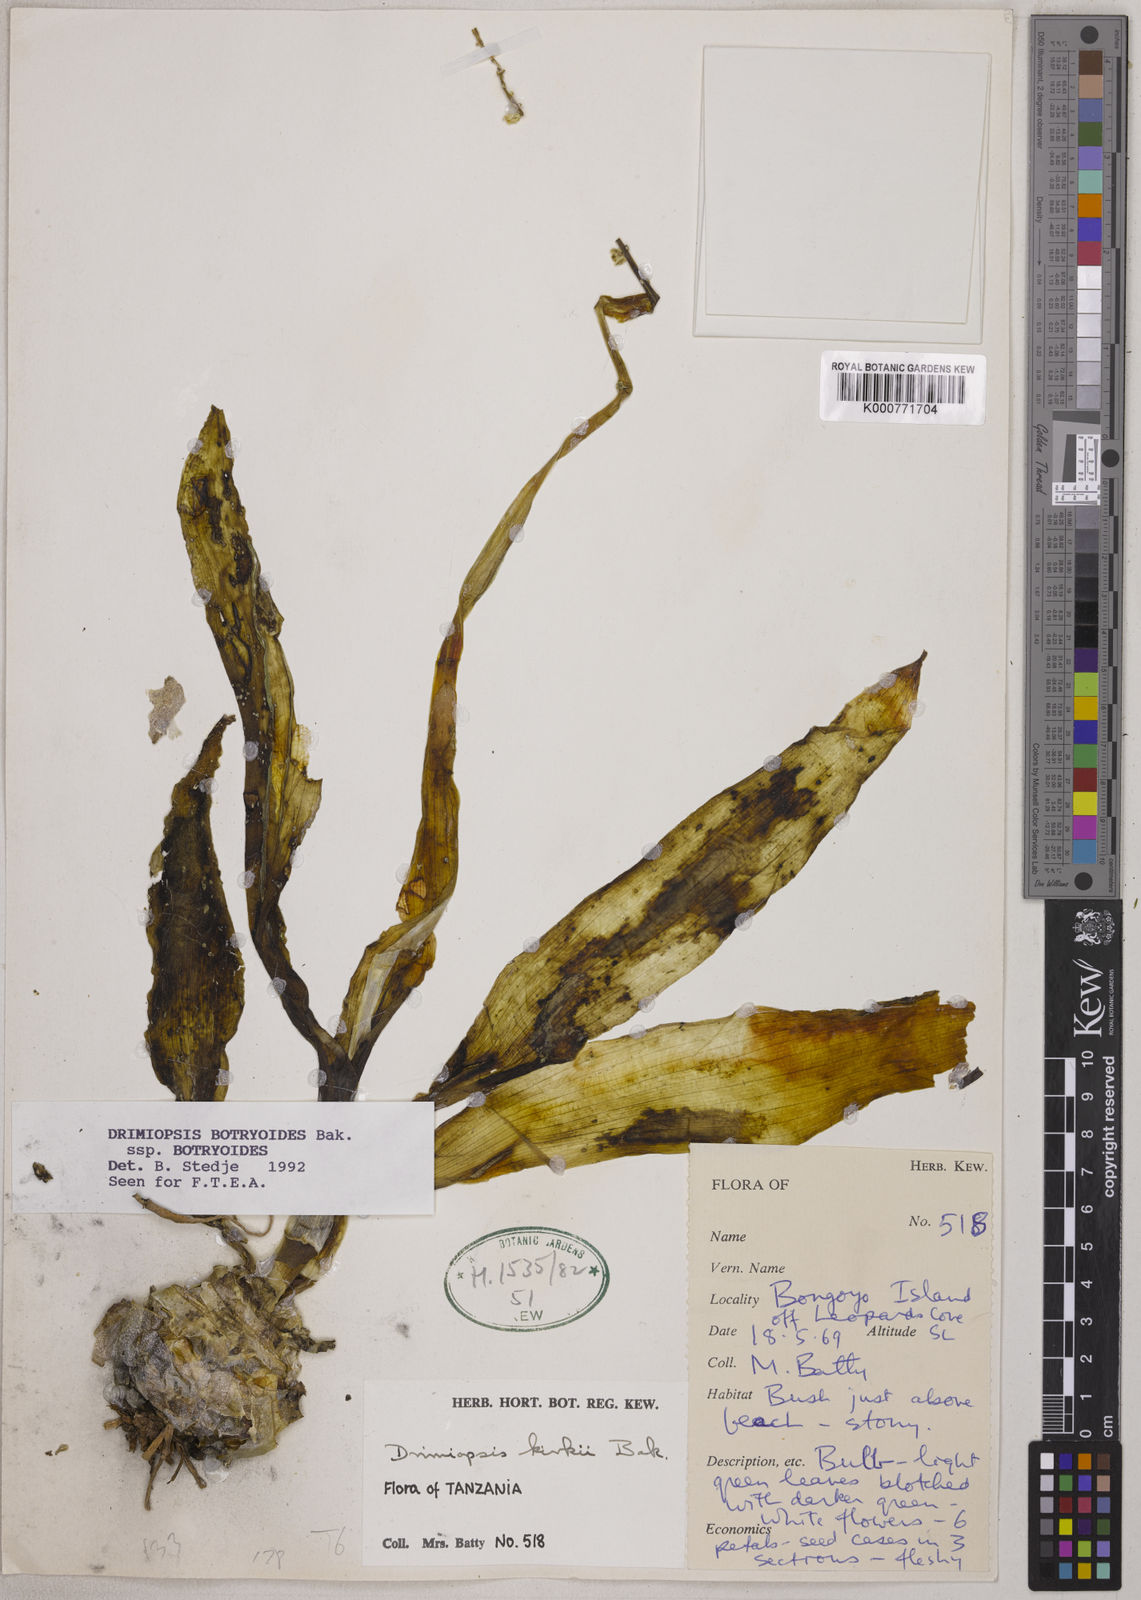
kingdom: Plantae
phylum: Tracheophyta
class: Liliopsida
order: Asparagales
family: Asparagaceae
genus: Drimiopsis
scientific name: Drimiopsis botryoides
